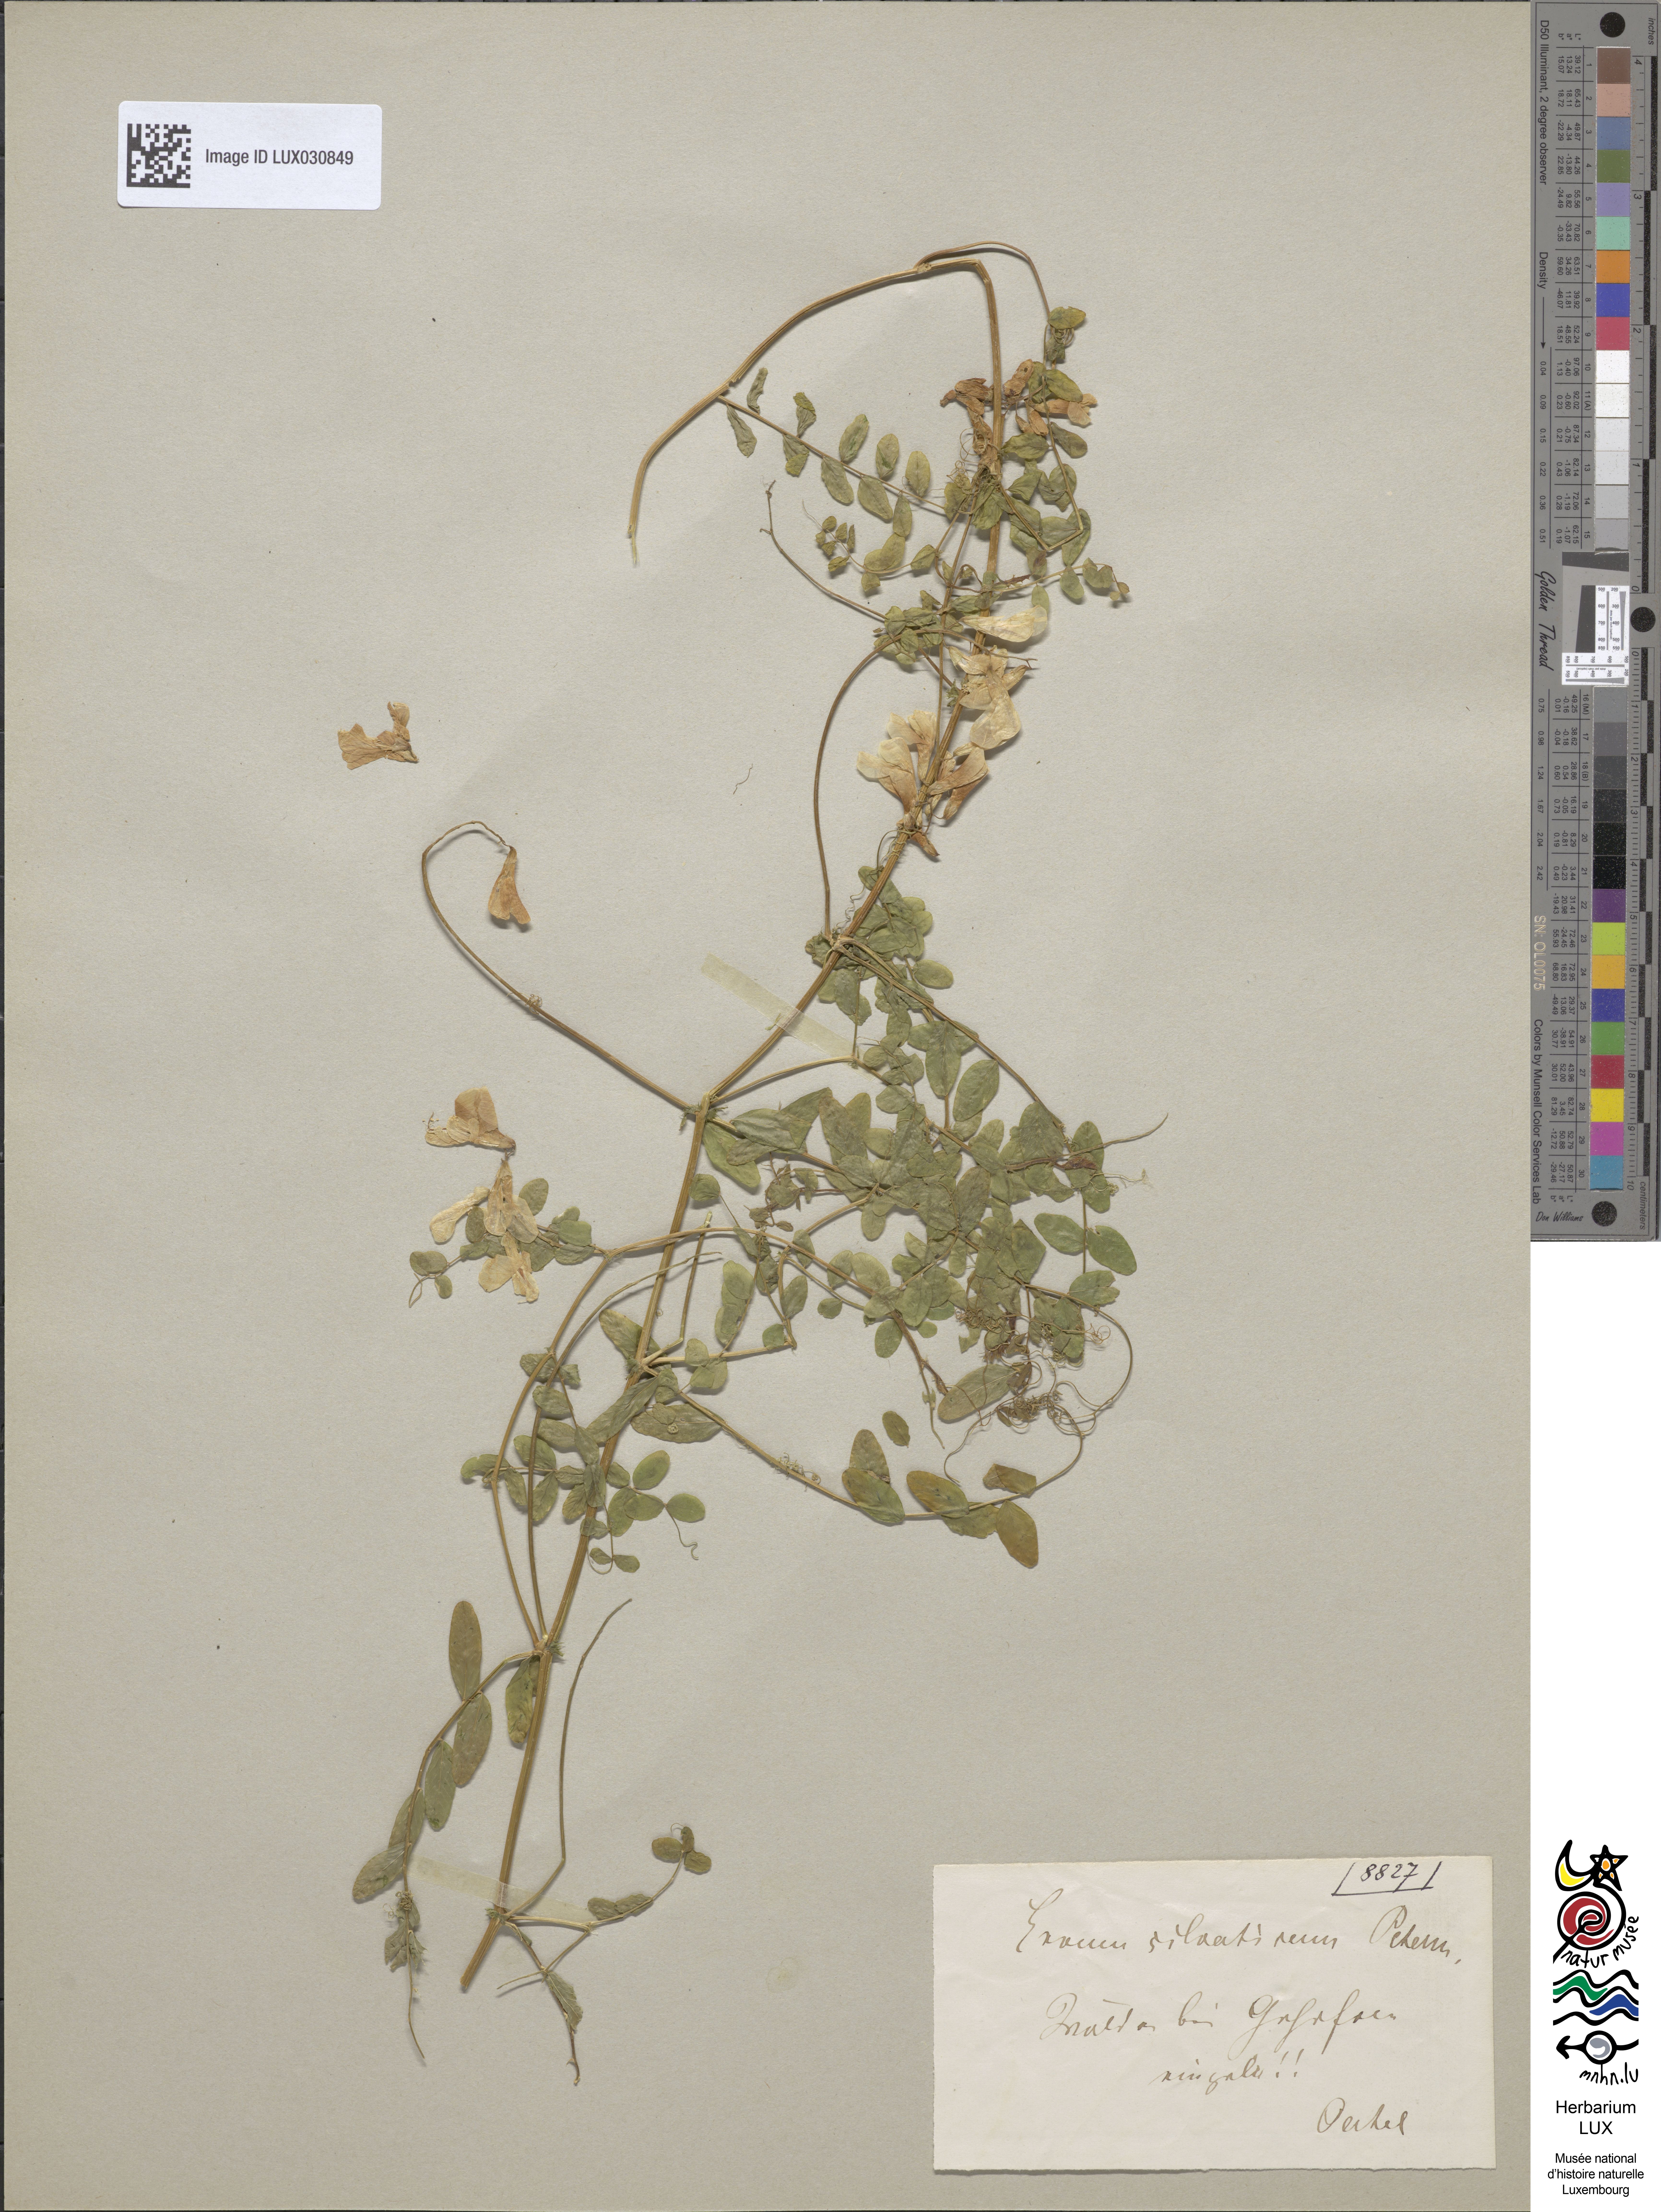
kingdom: Plantae
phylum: Tracheophyta
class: Magnoliopsida
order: Fabales
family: Fabaceae
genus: Vicia
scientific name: Vicia sylvatica
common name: Wood vetch
